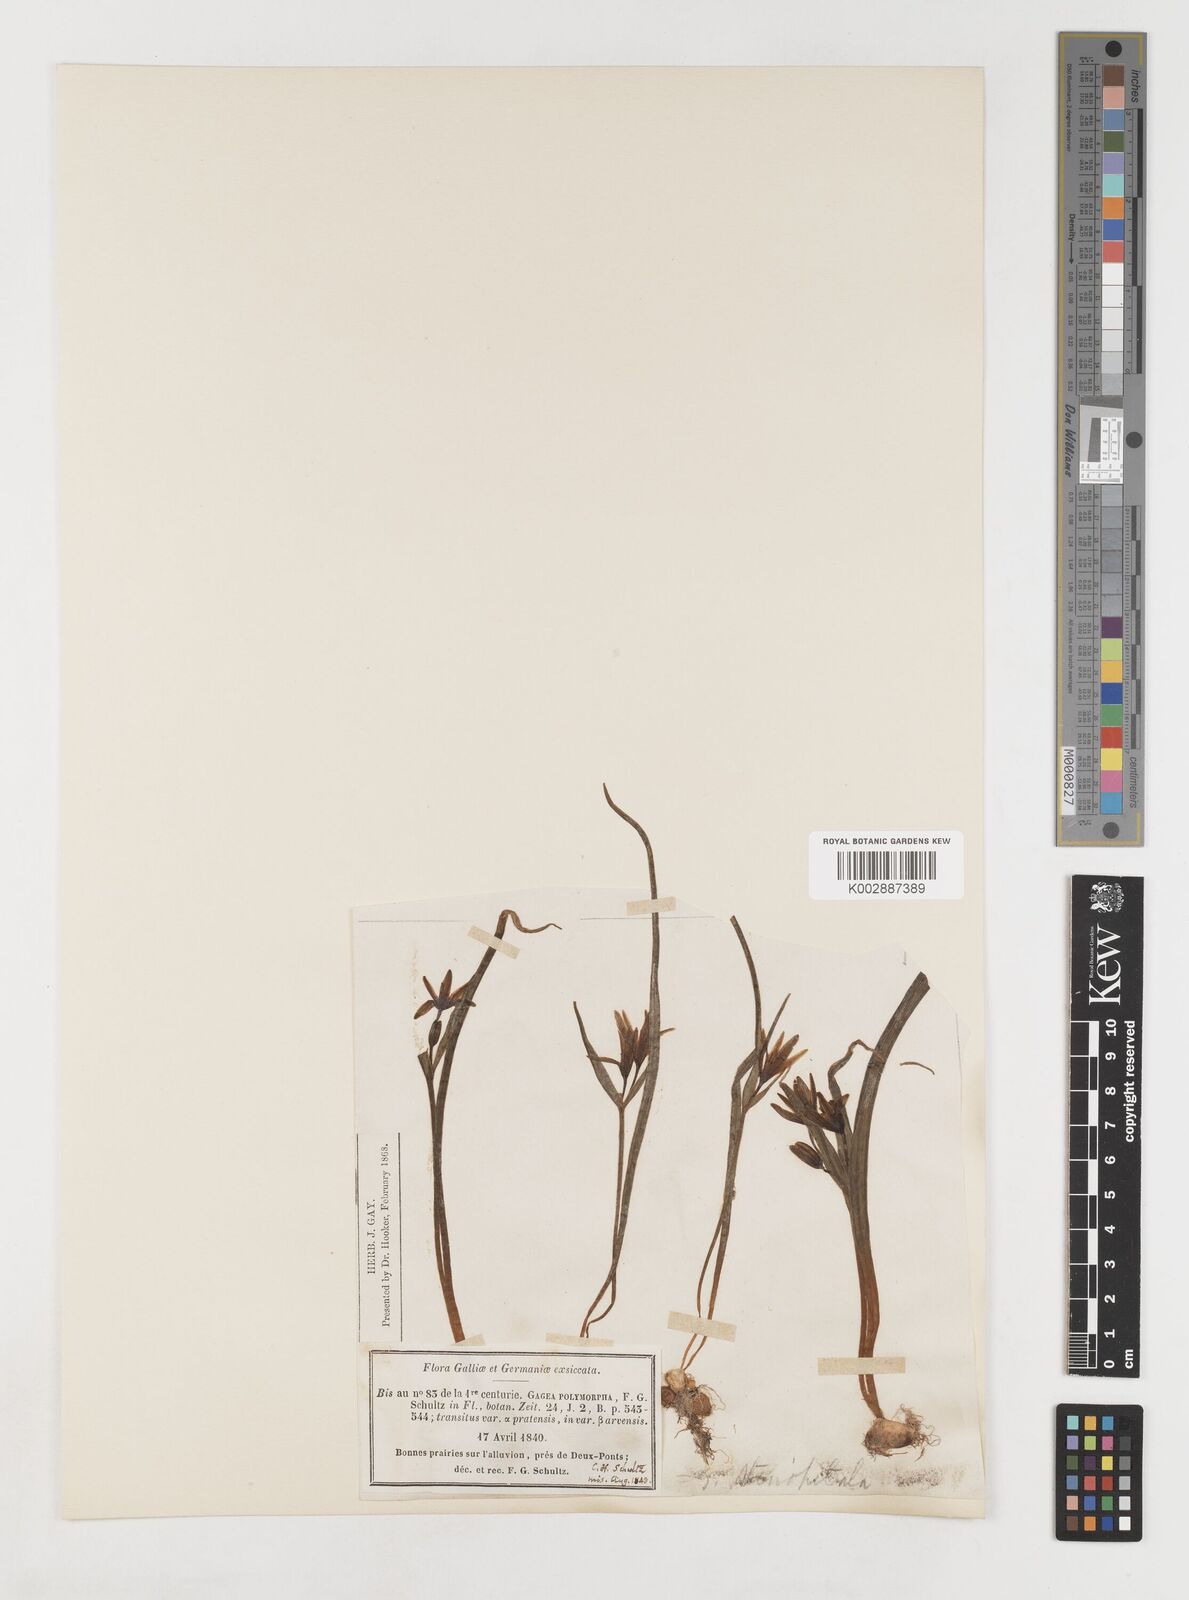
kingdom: Plantae
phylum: Tracheophyta
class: Liliopsida
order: Liliales
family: Liliaceae
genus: Gagea
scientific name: Gagea pratensis
